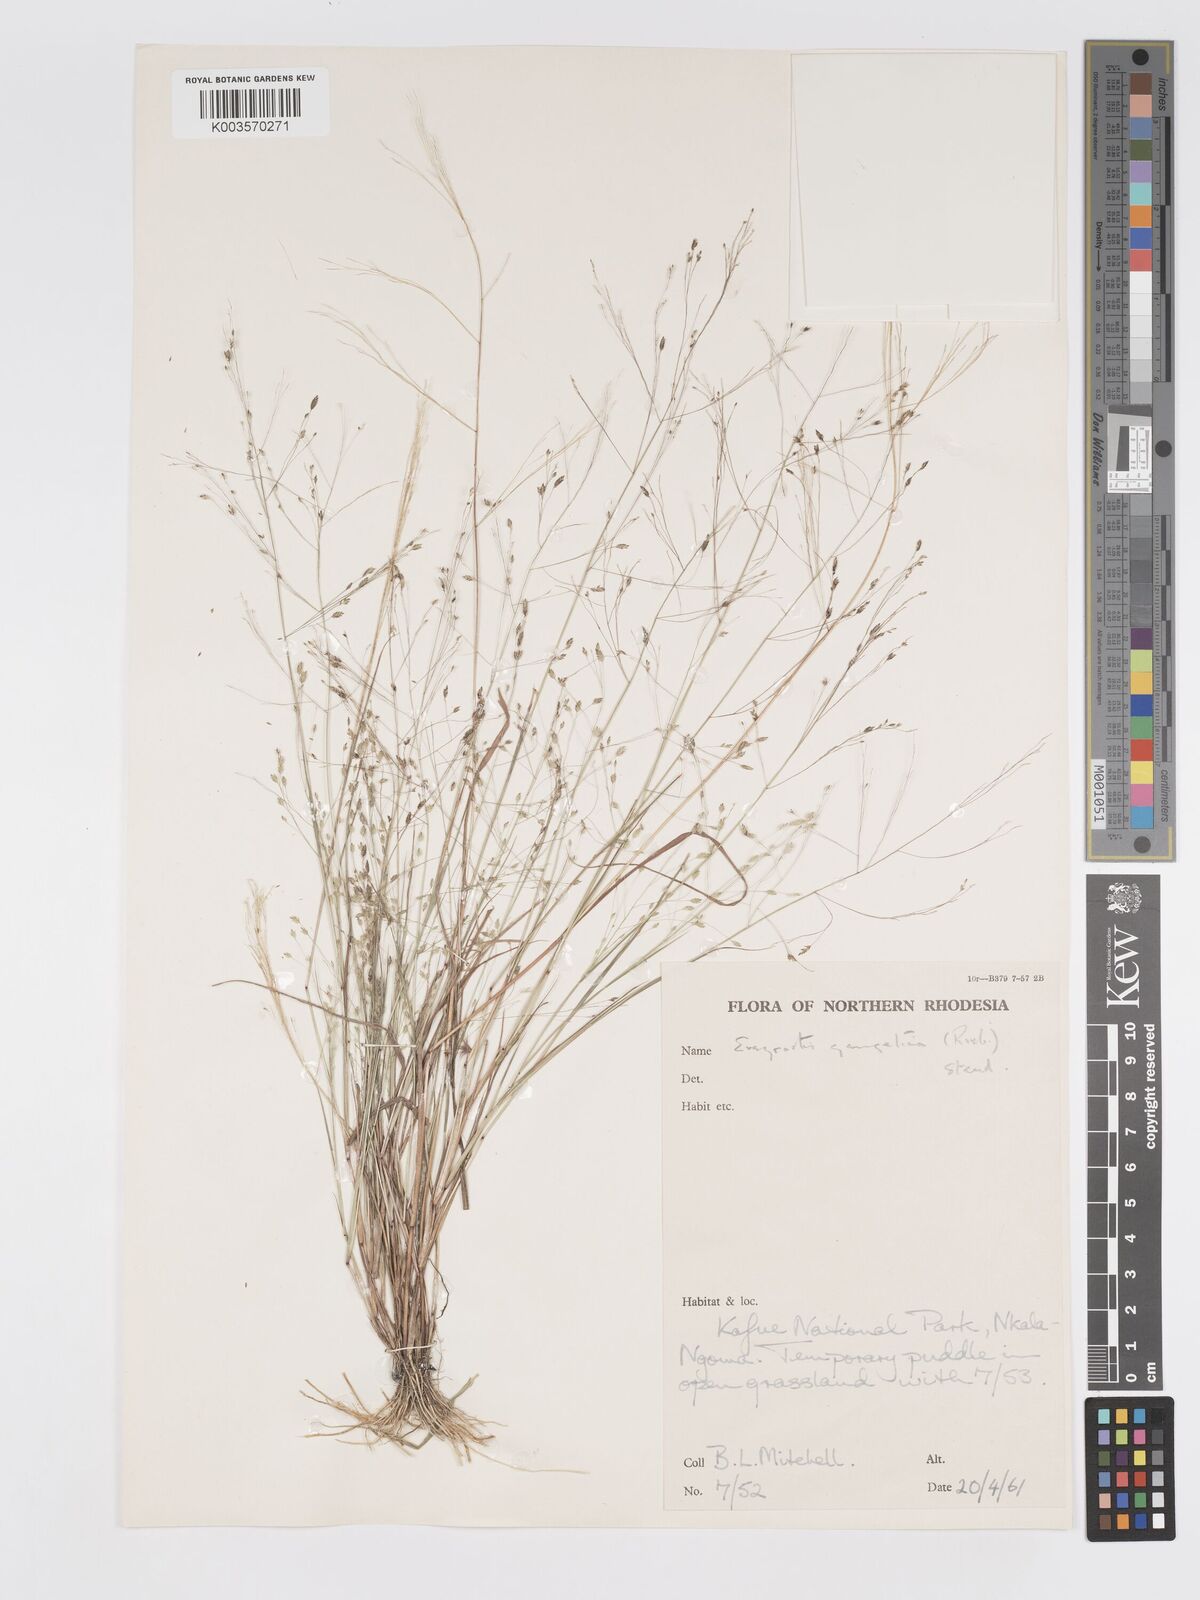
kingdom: Plantae
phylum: Tracheophyta
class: Liliopsida
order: Poales
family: Poaceae
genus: Eragrostis
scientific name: Eragrostis gangetica
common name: Slimflower lovegrass
